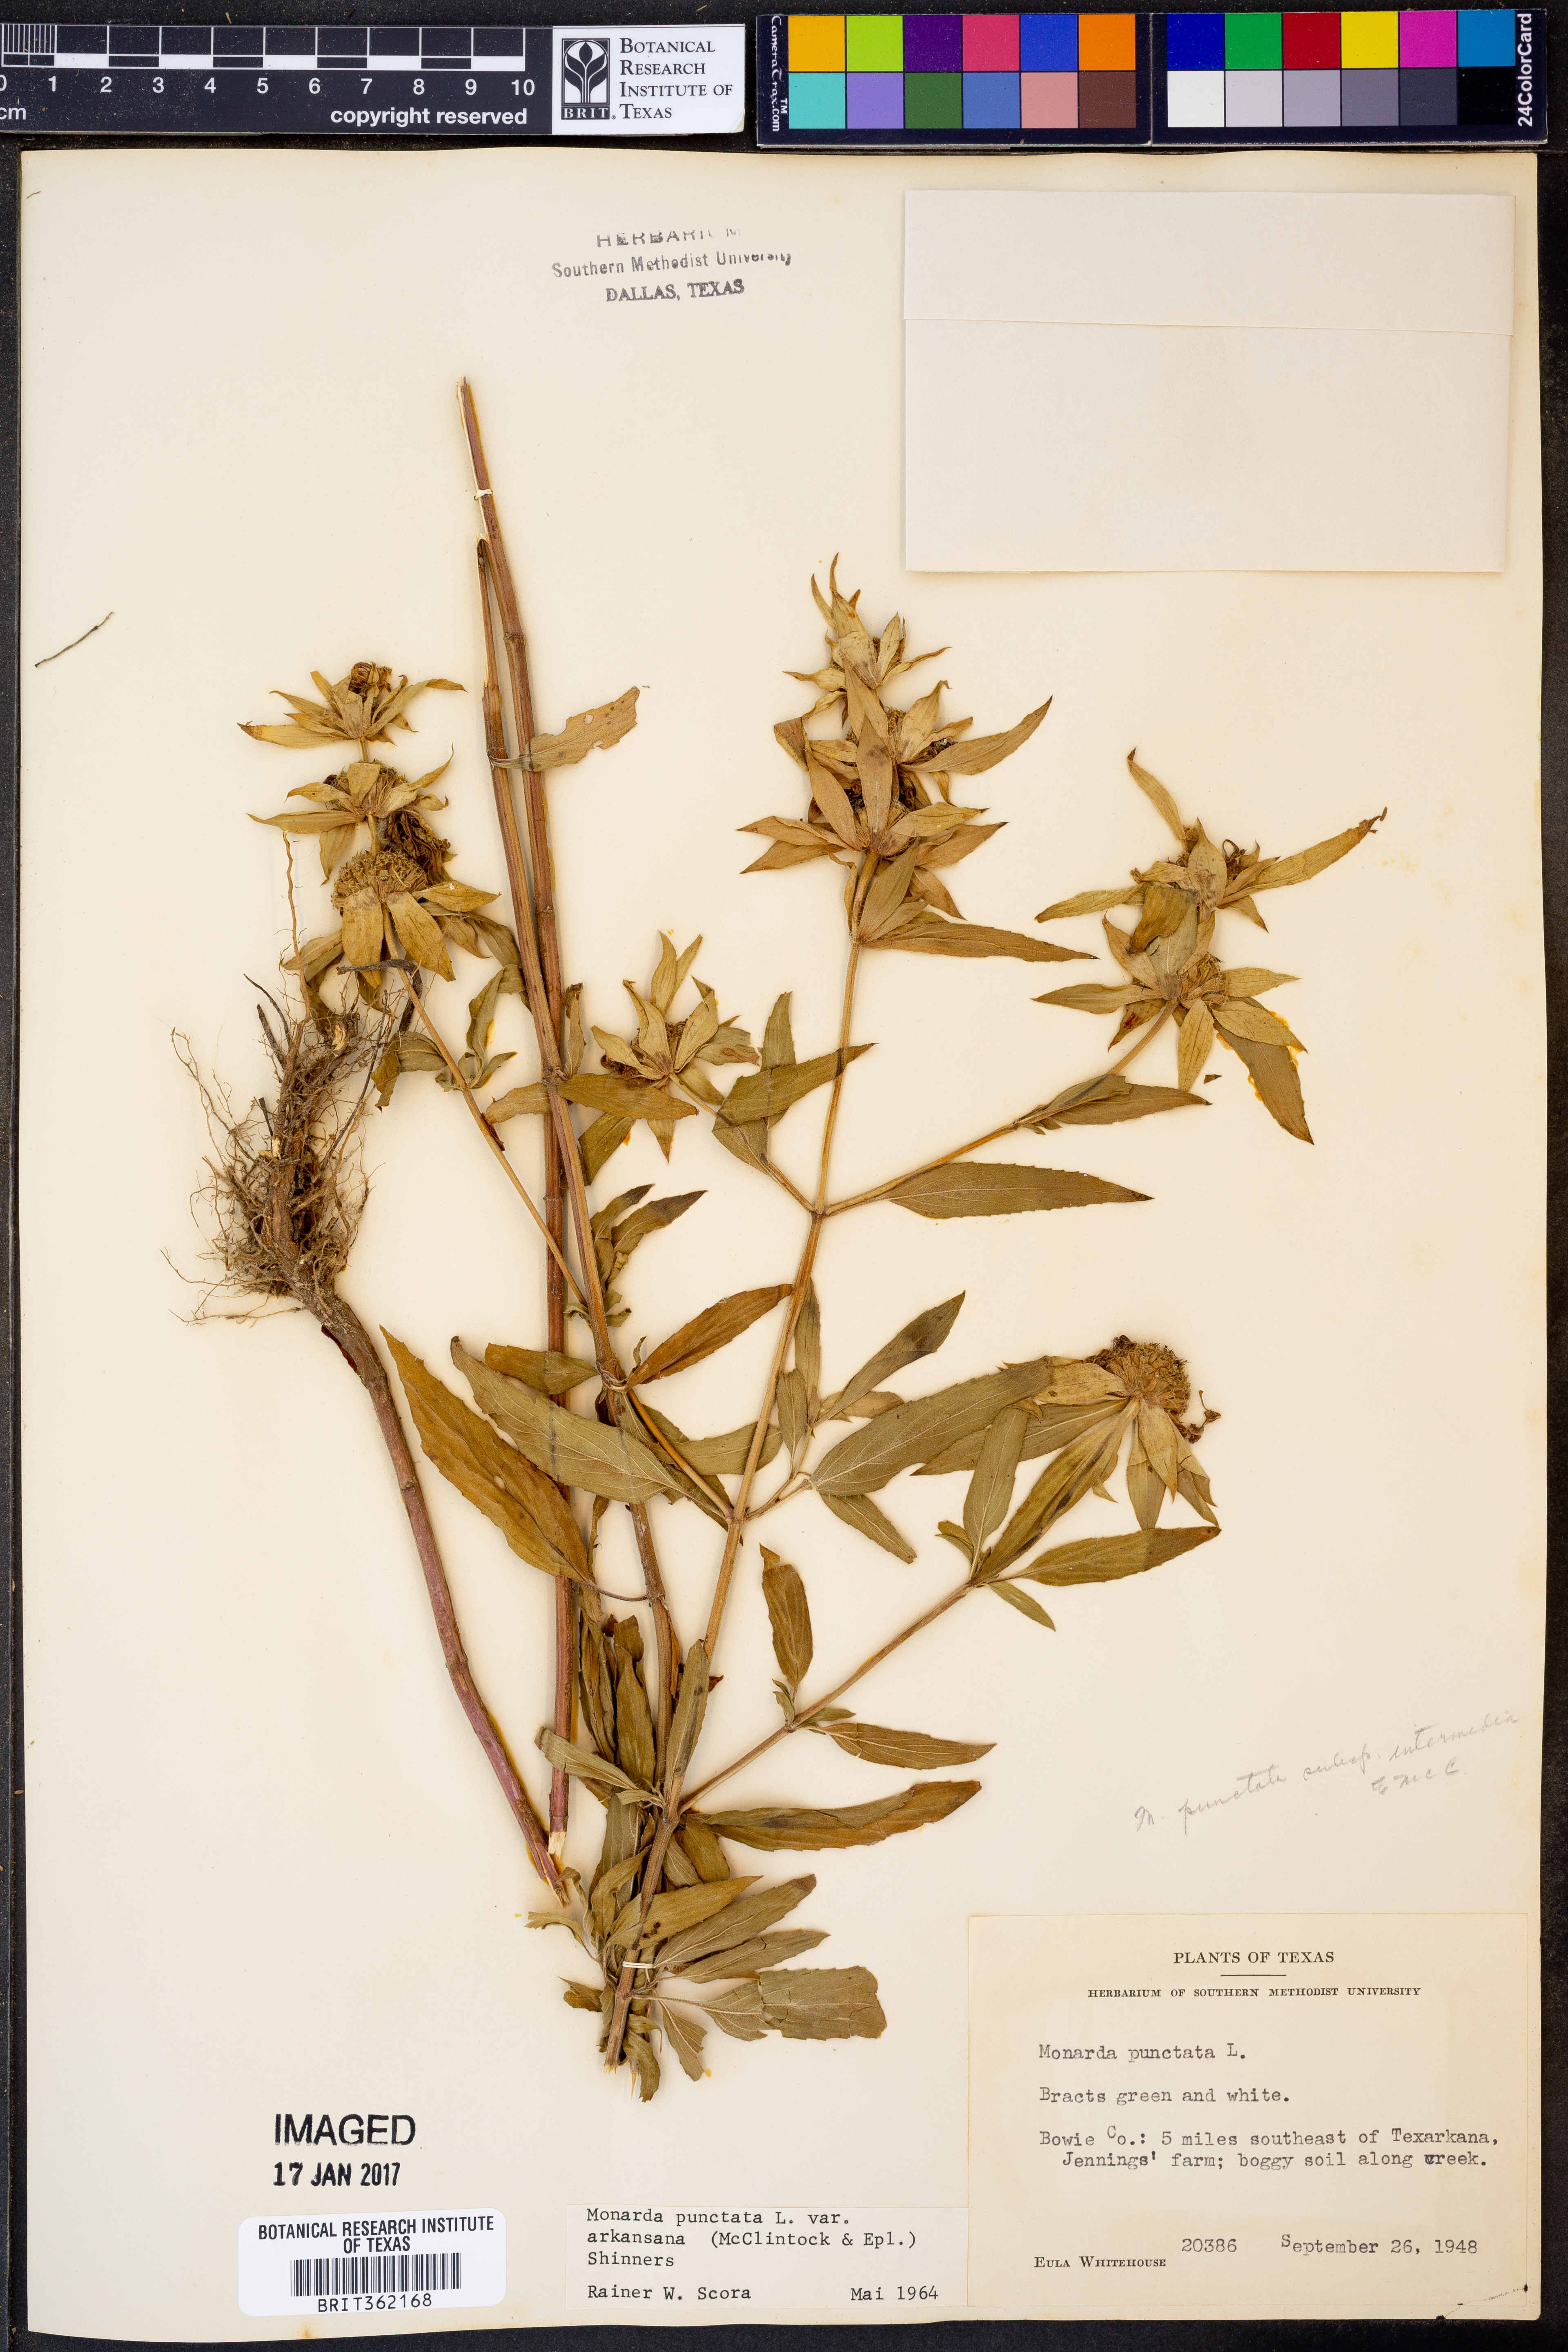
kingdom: Plantae
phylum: Tracheophyta
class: Magnoliopsida
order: Lamiales
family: Lamiaceae
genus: Monarda
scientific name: Monarda punctata
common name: Dotted monarda
